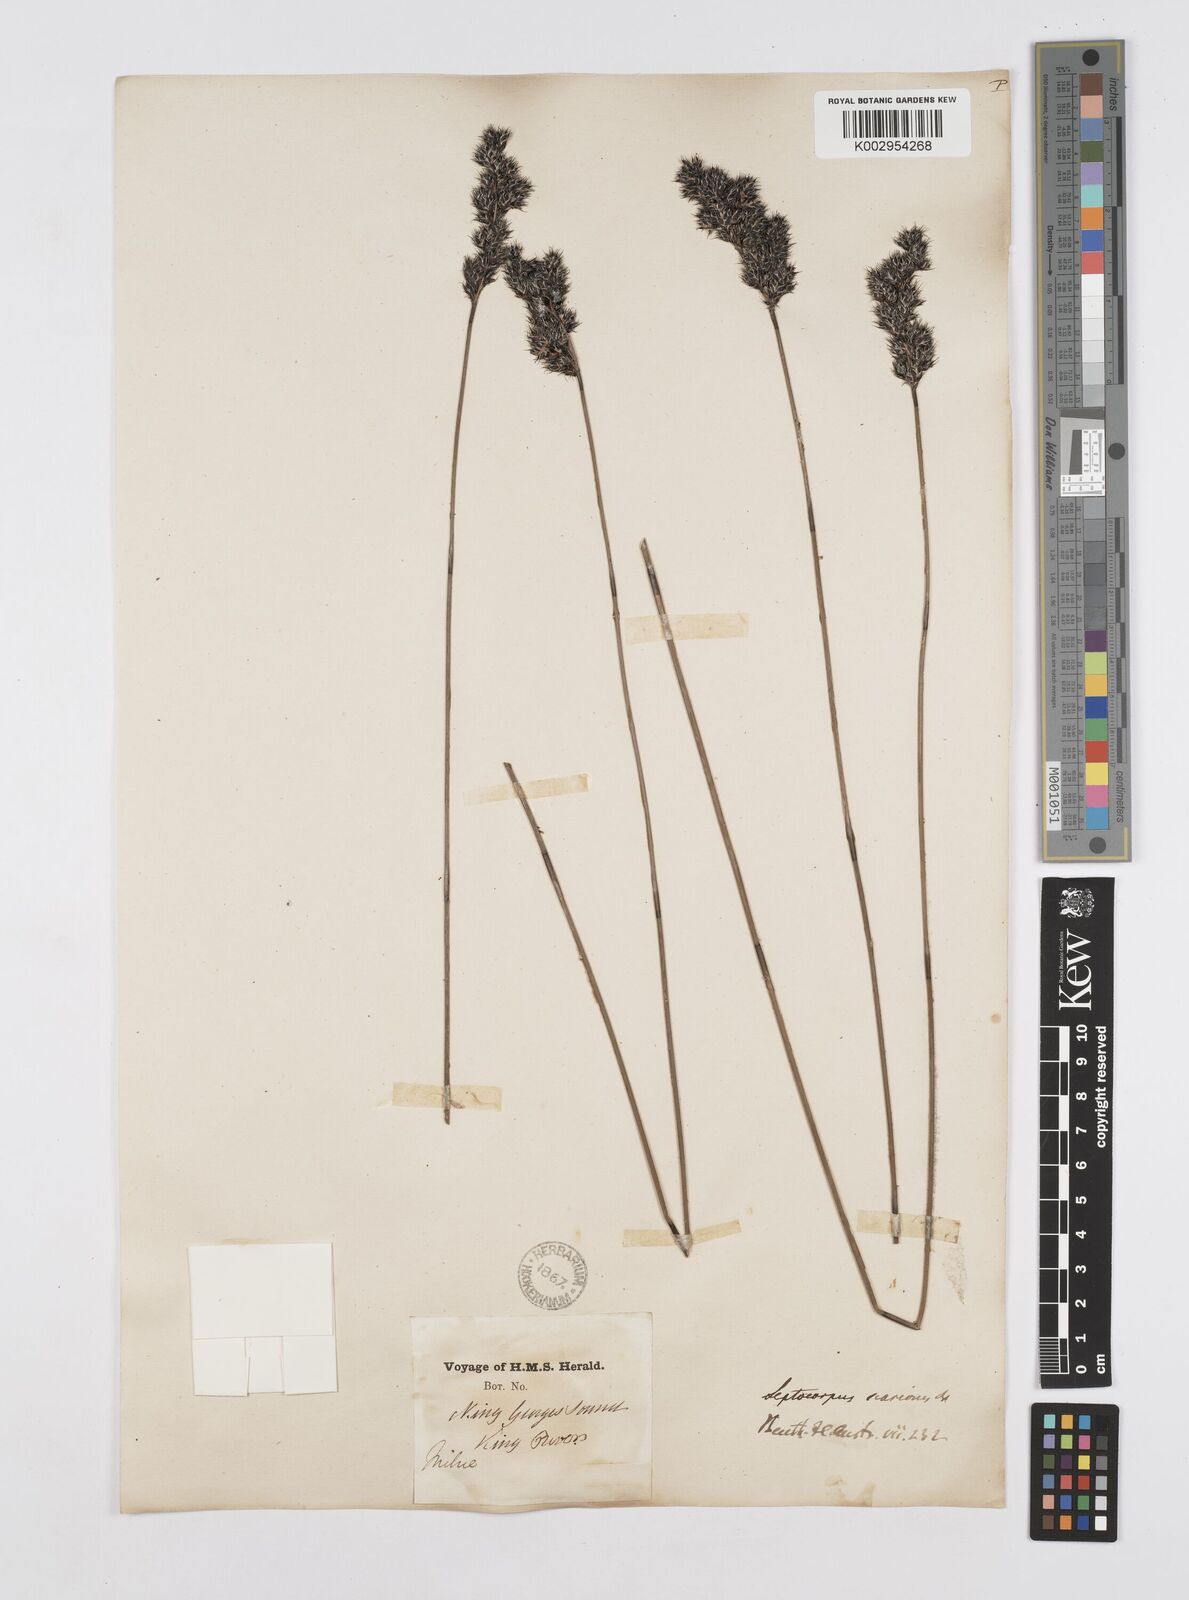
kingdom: Plantae
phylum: Tracheophyta
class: Liliopsida
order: Poales
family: Restionaceae
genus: Leptocarpus
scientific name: Leptocarpus scariosus
